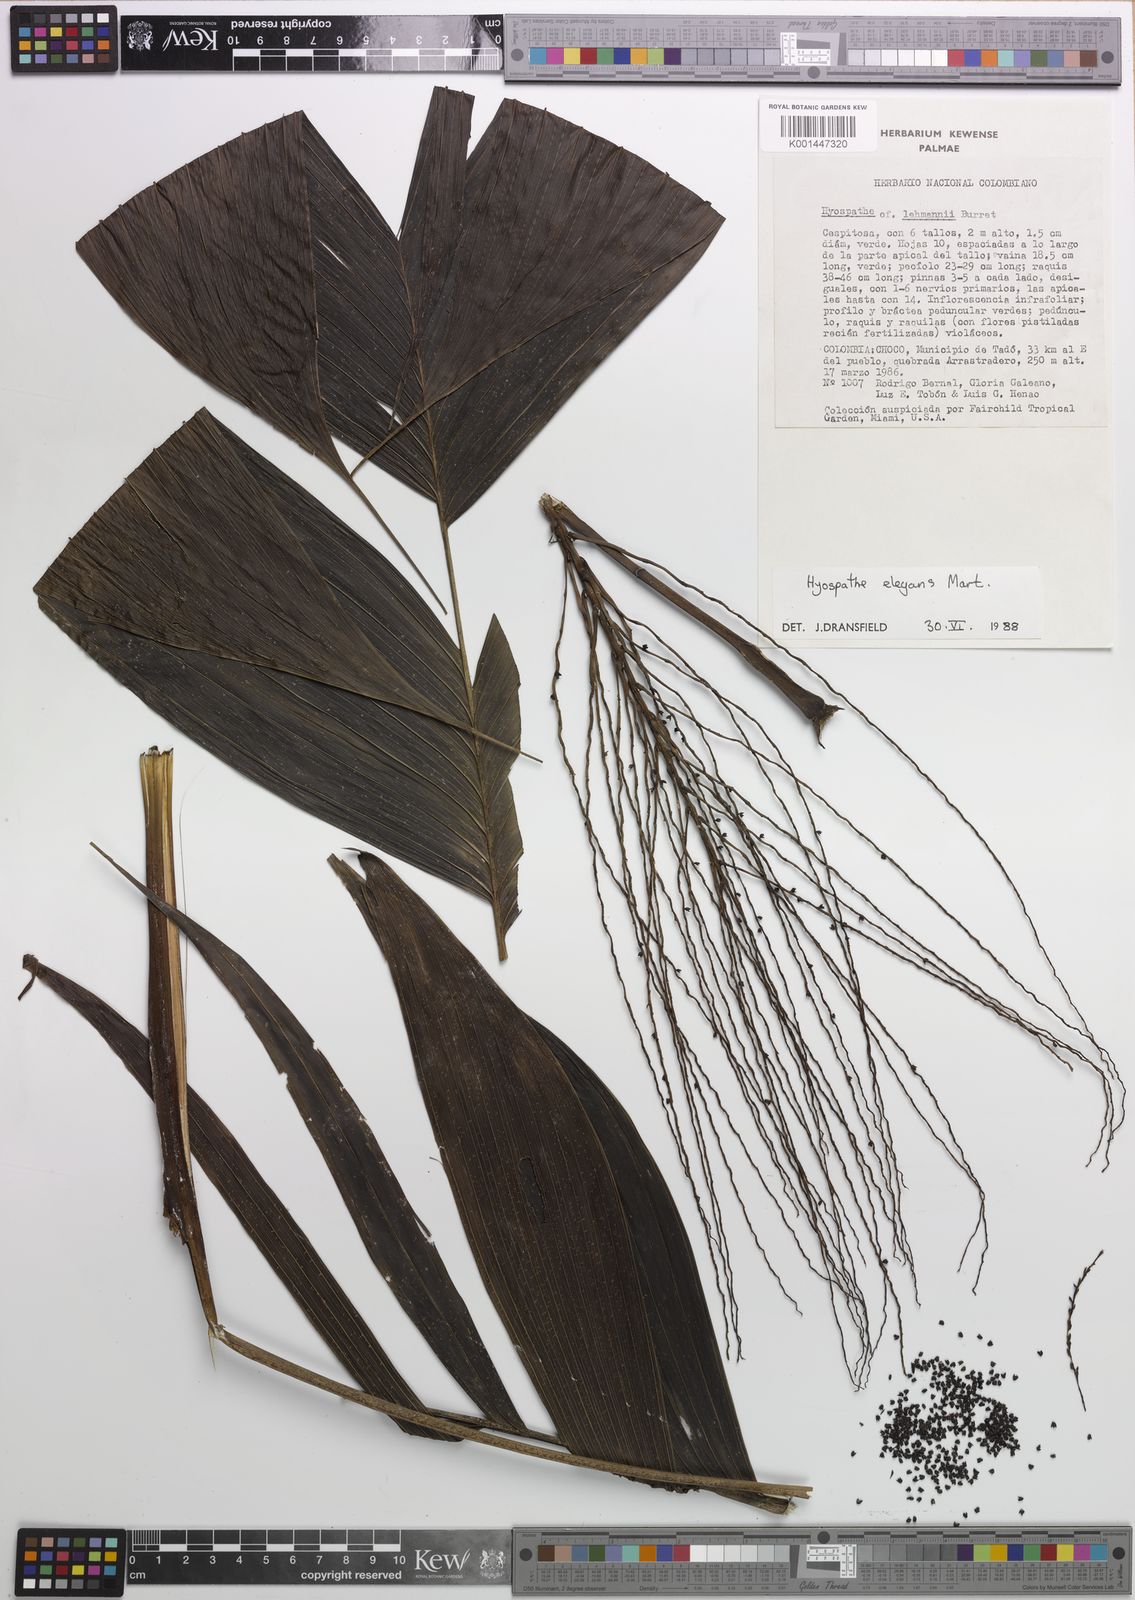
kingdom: Plantae
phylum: Tracheophyta
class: Liliopsida
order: Arecales
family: Arecaceae
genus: Hyospathe
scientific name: Hyospathe elegans
